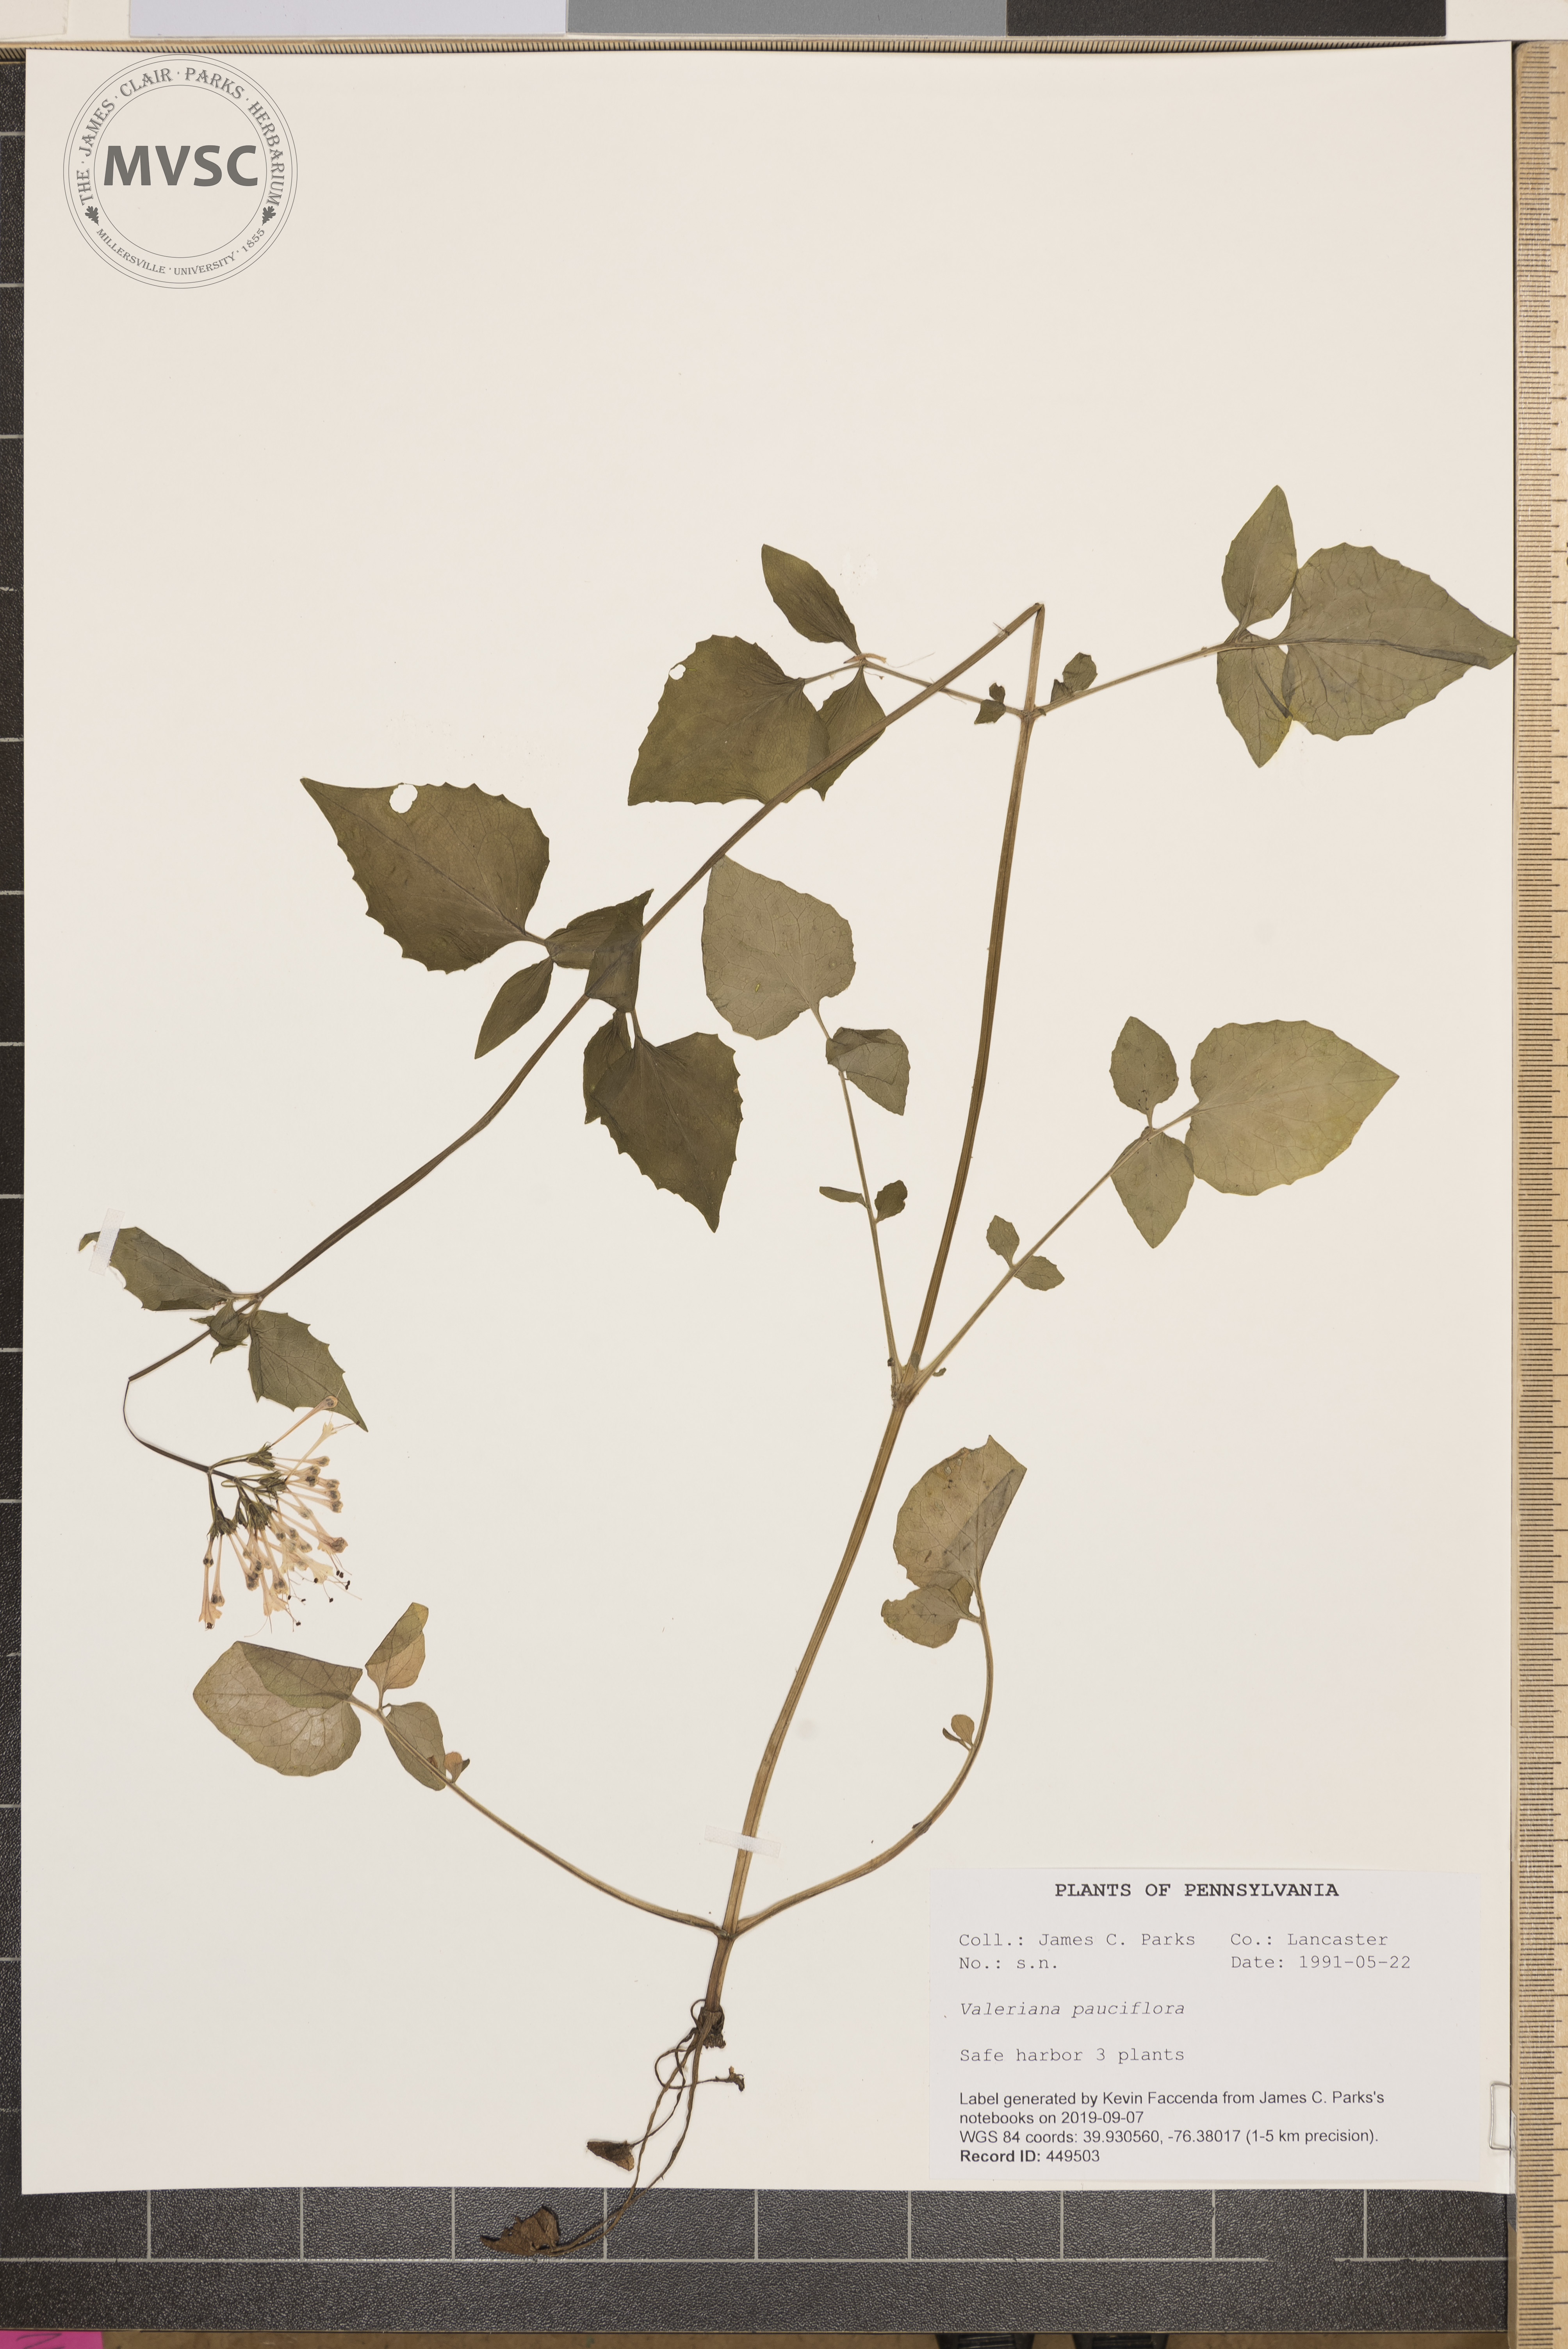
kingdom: Plantae
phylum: Tracheophyta
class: Magnoliopsida
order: Dipsacales
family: Caprifoliaceae
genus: Valeriana
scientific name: Valeriana pauciflora
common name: Long-tube valeriana
